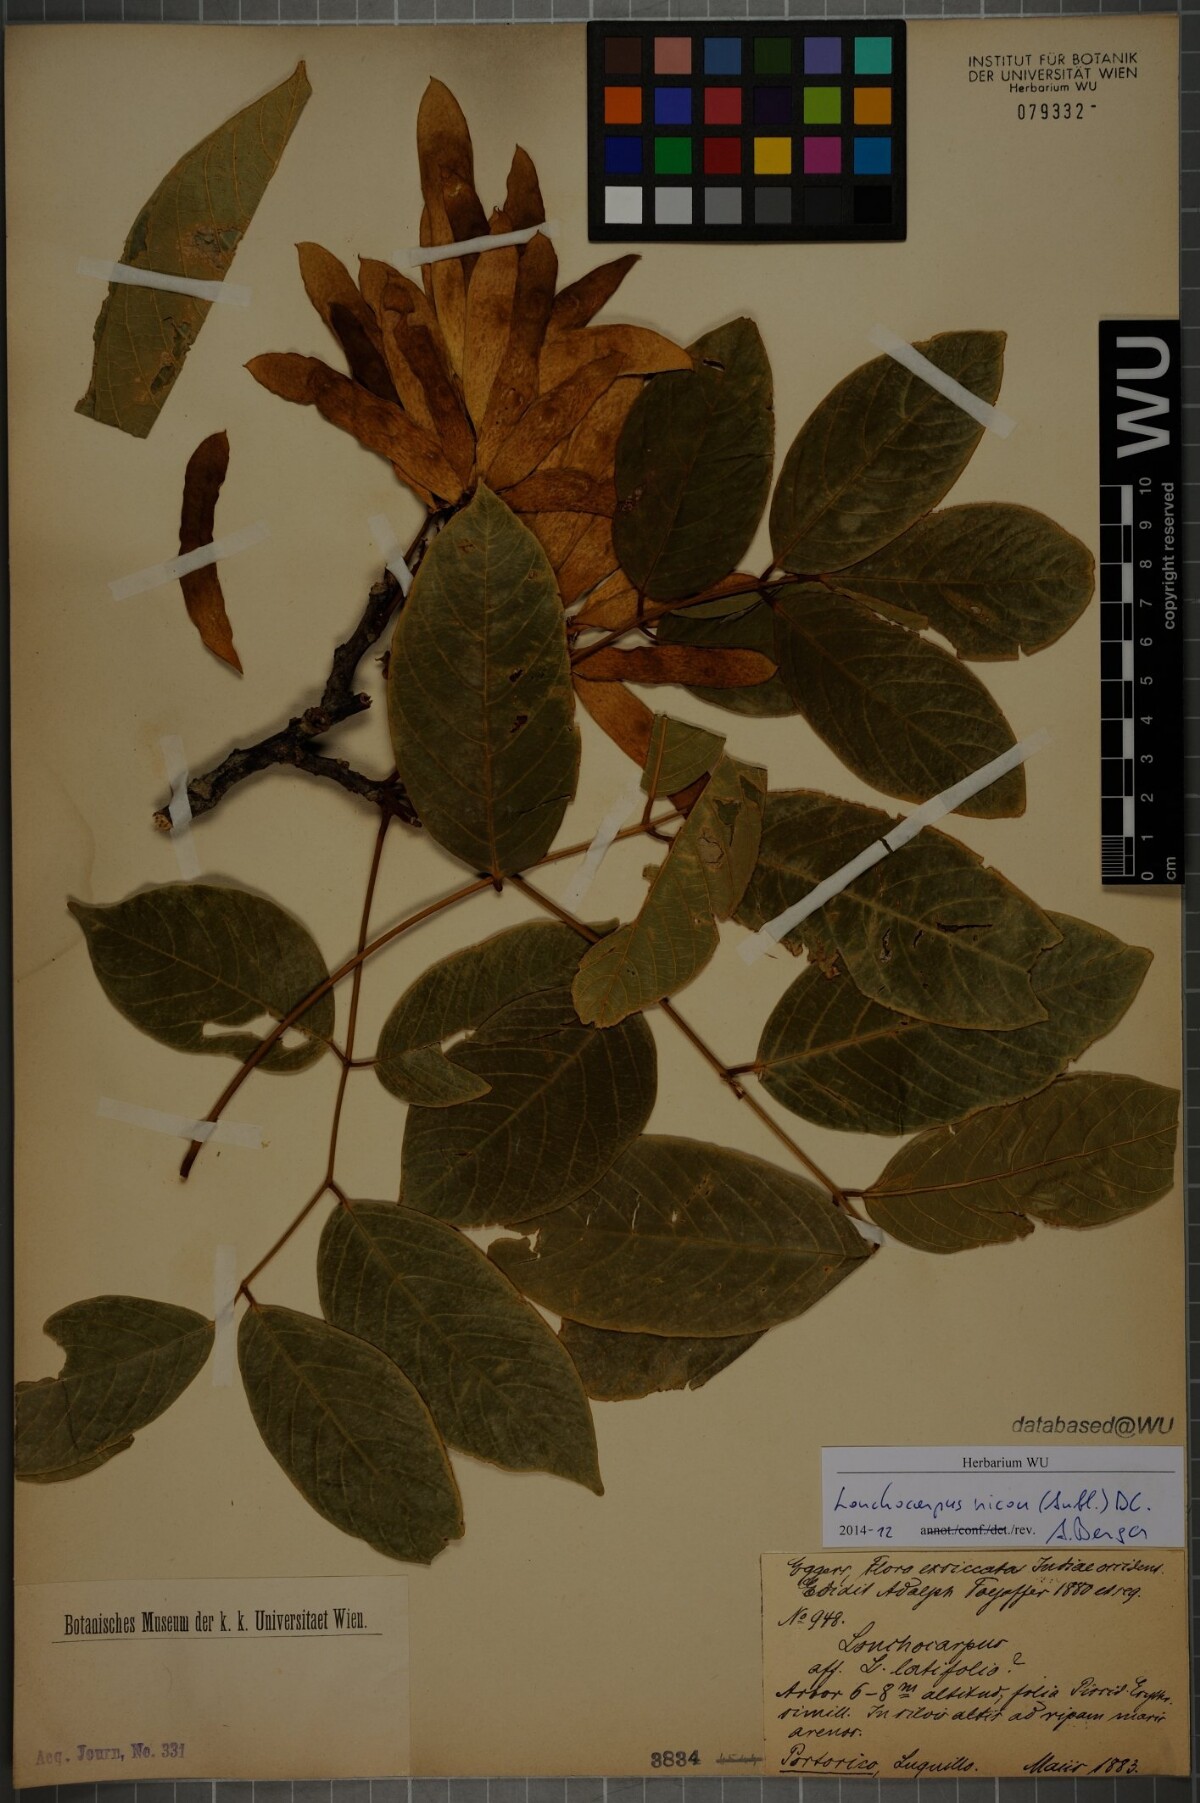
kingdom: Plantae
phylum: Tracheophyta
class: Magnoliopsida
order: Fabales
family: Fabaceae
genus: Lonchocarpus
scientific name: Lonchocarpus heptaphyllus
